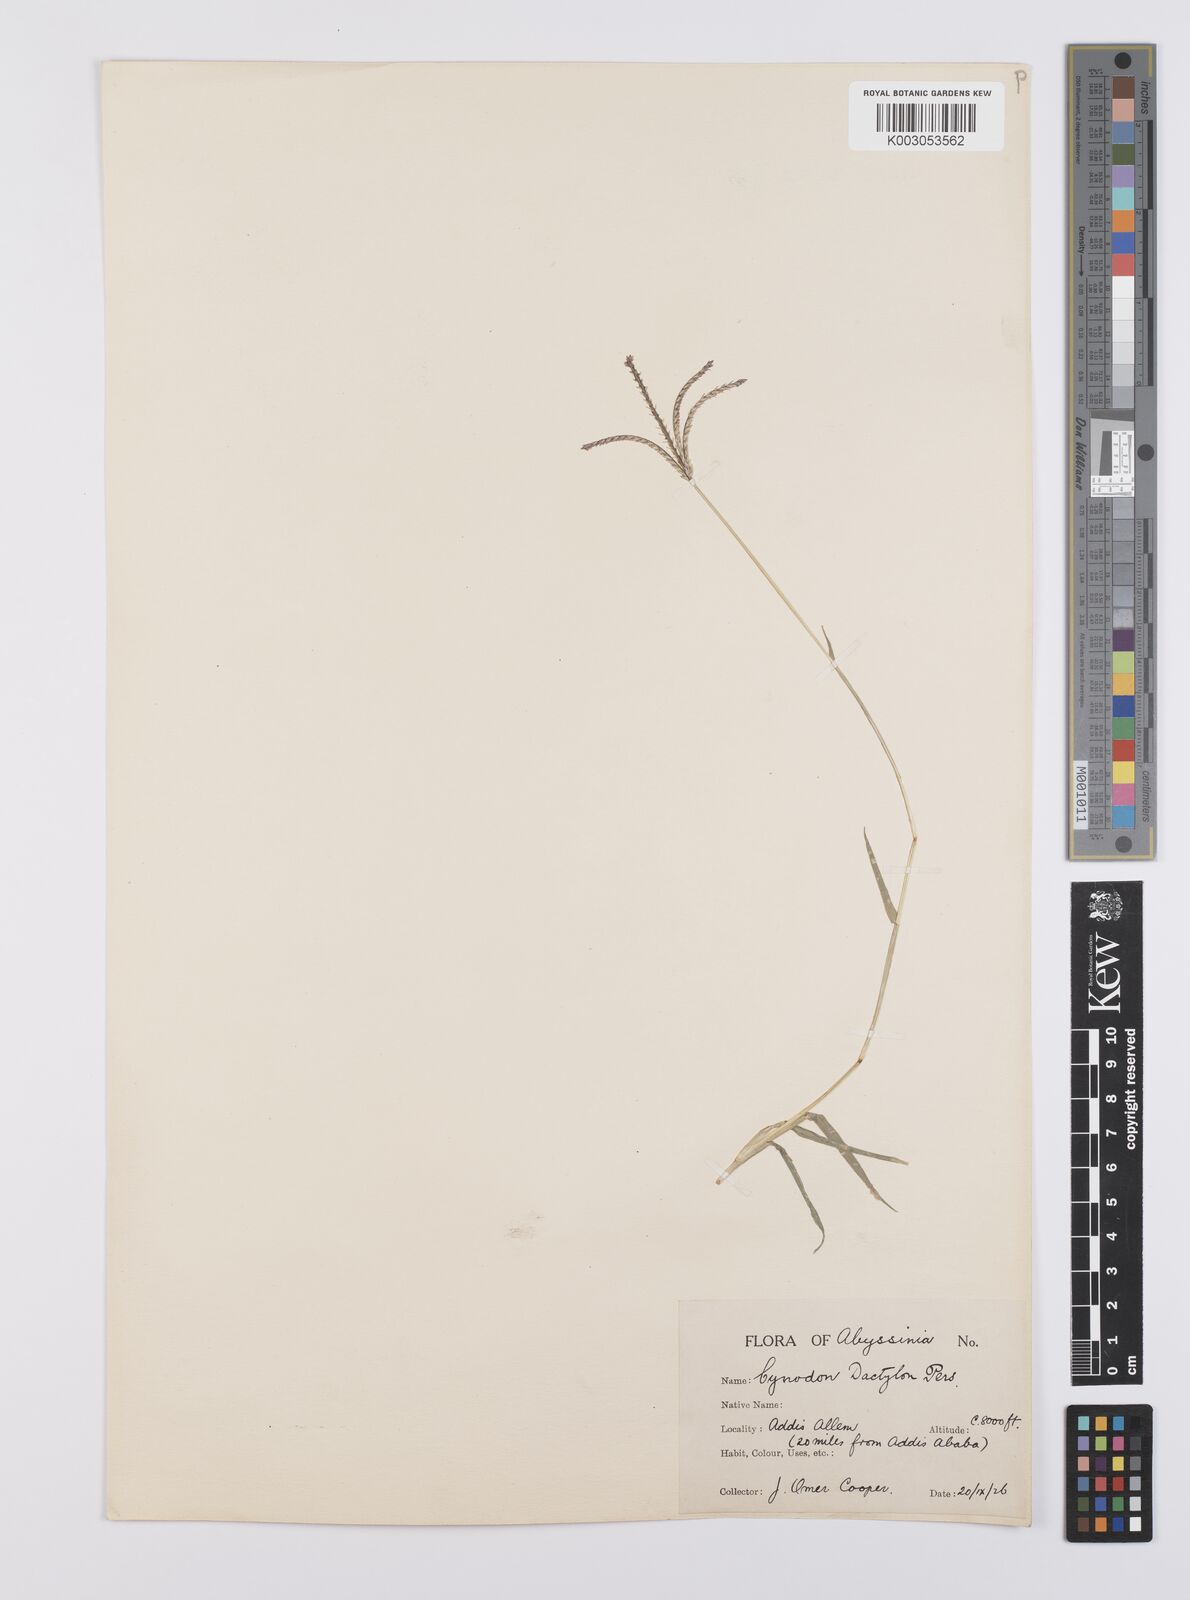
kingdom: Plantae
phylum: Tracheophyta
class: Liliopsida
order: Poales
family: Poaceae
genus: Cynodon
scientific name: Cynodon dactylon
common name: Bermuda grass
